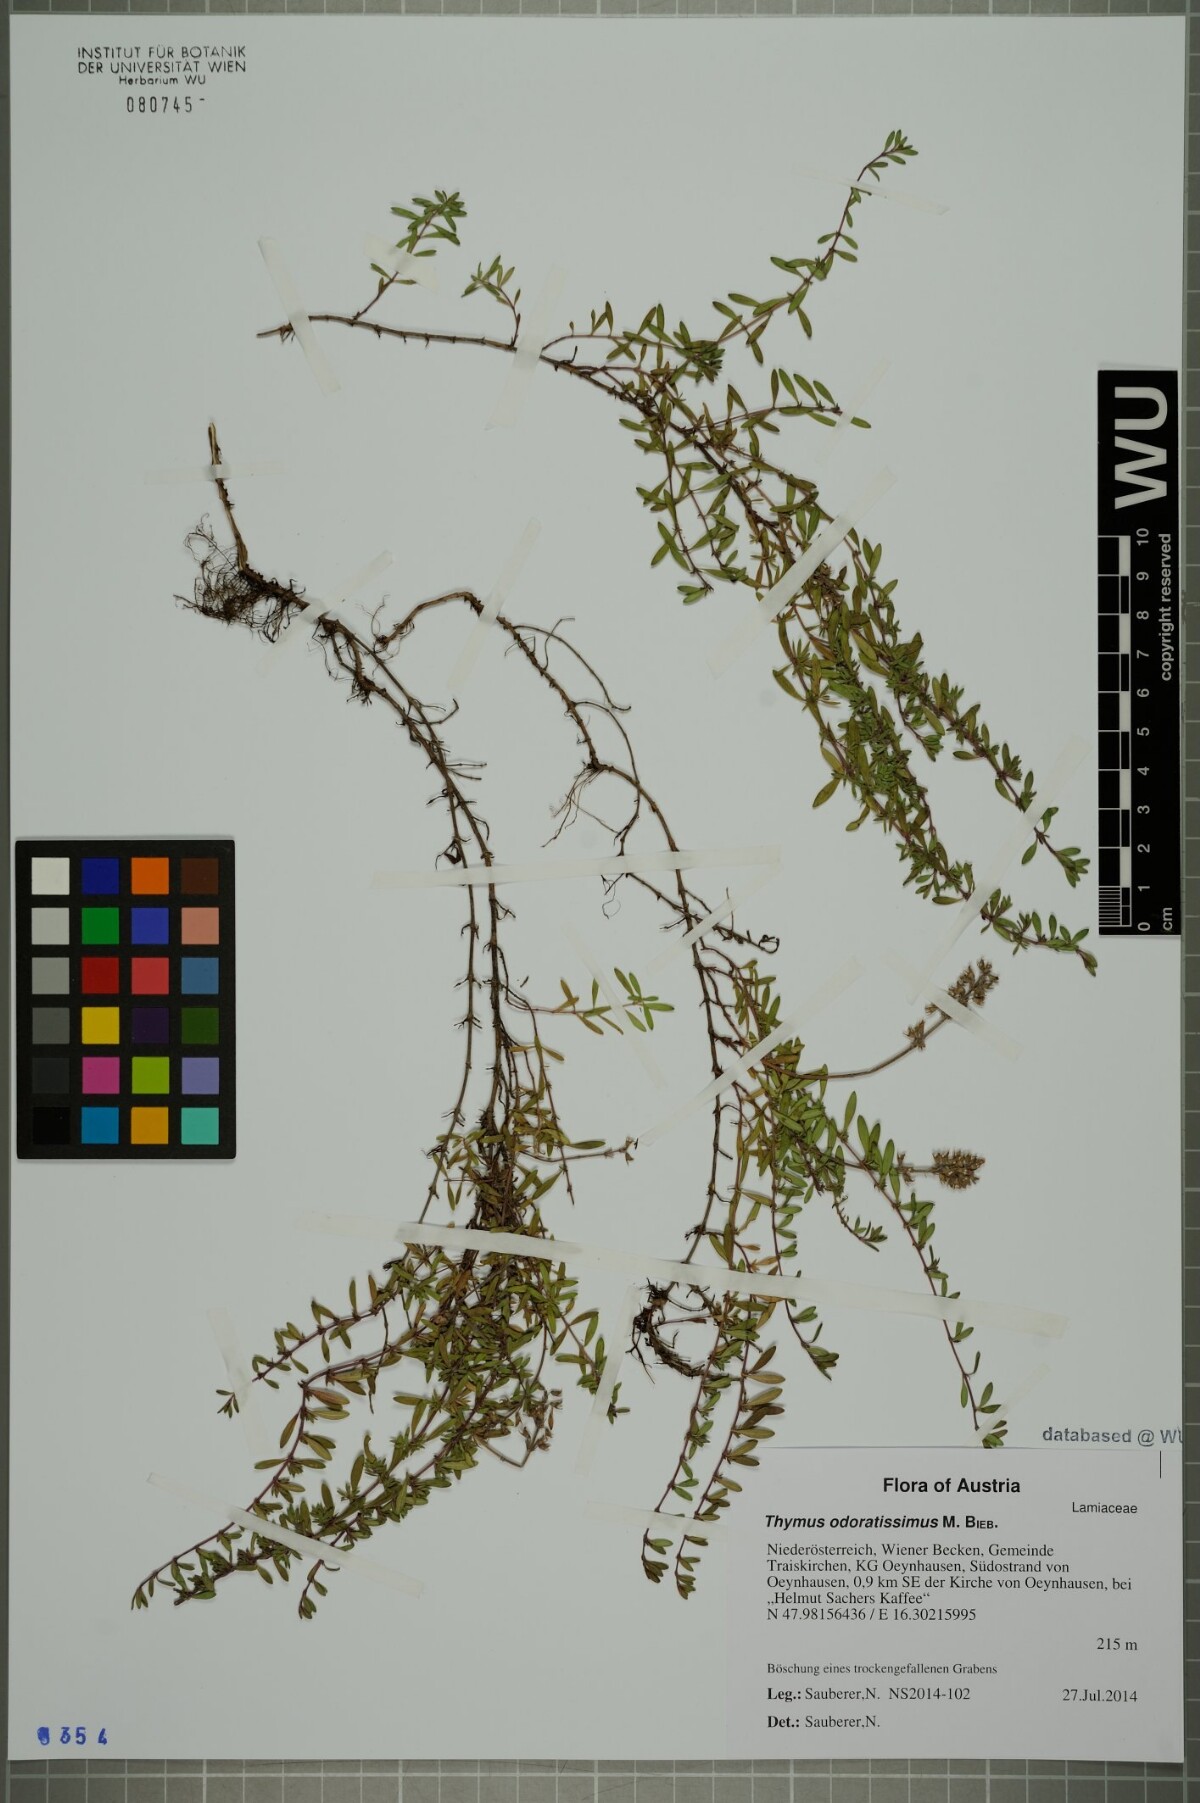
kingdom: Plantae
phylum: Tracheophyta
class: Magnoliopsida
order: Lamiales
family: Lamiaceae
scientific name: Lamiaceae
